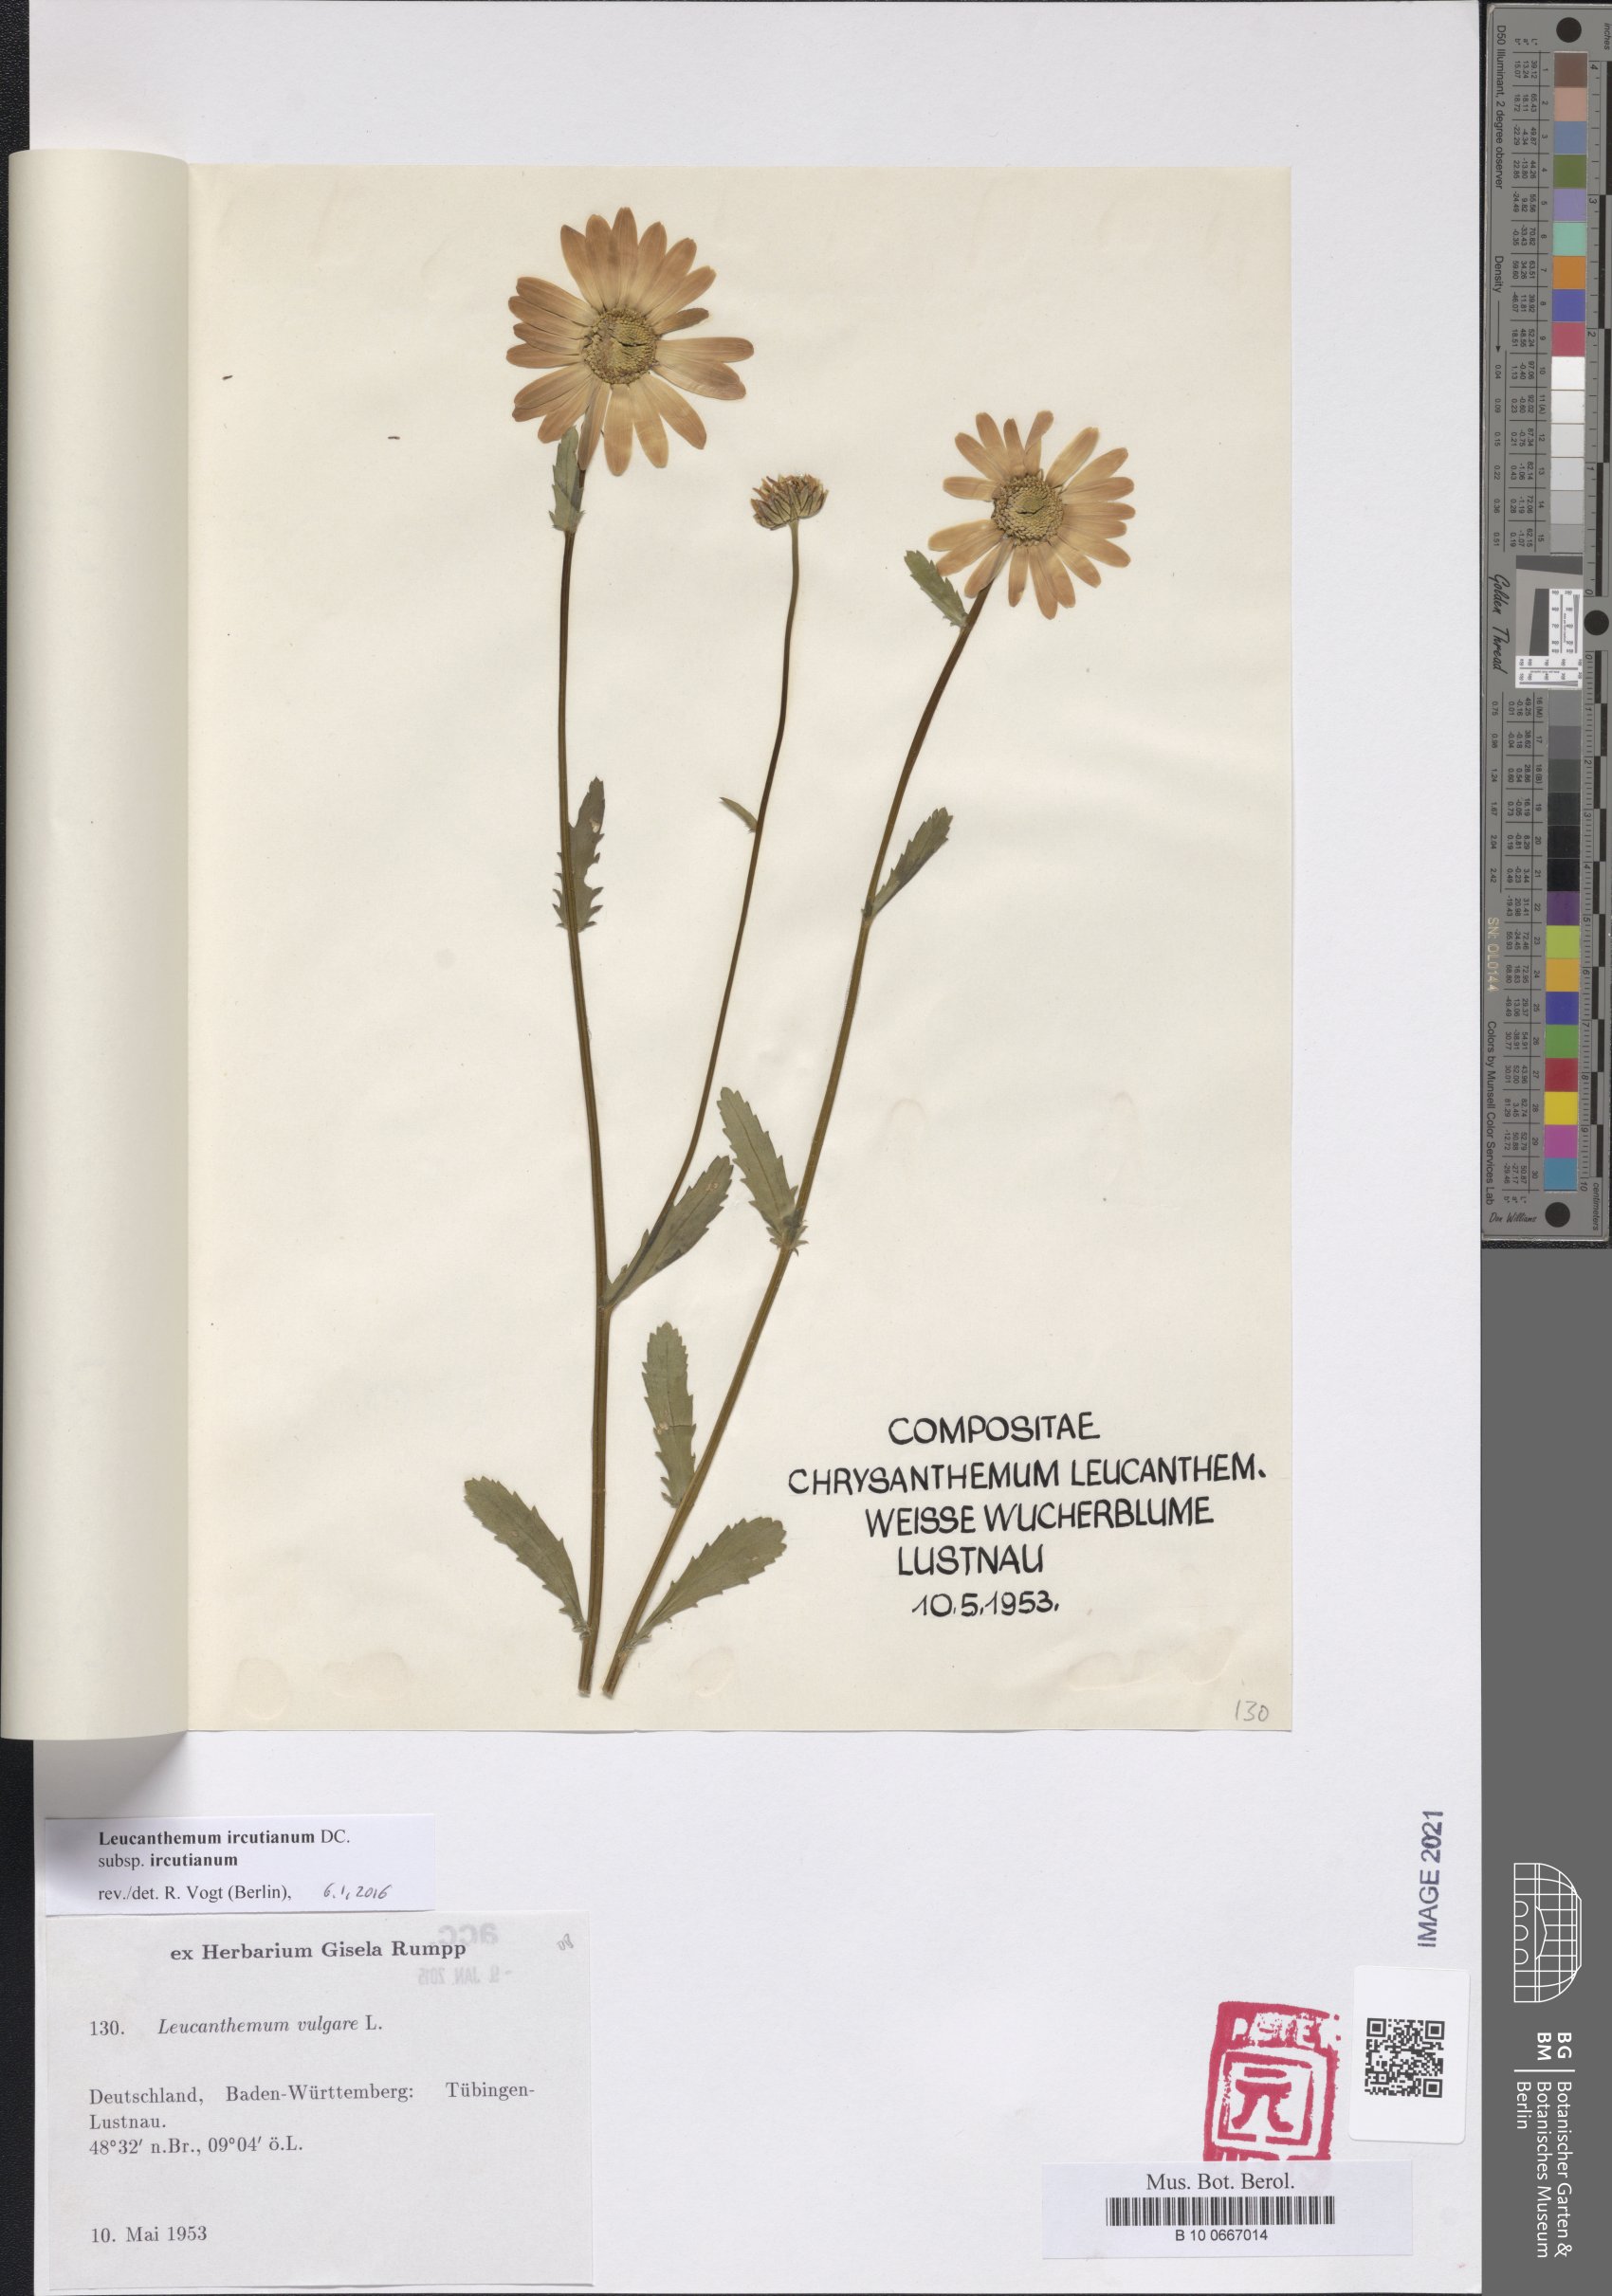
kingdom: Plantae
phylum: Tracheophyta
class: Magnoliopsida
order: Asterales
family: Asteraceae
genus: Leucanthemum
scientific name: Leucanthemum ircutianum
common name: Daisy
